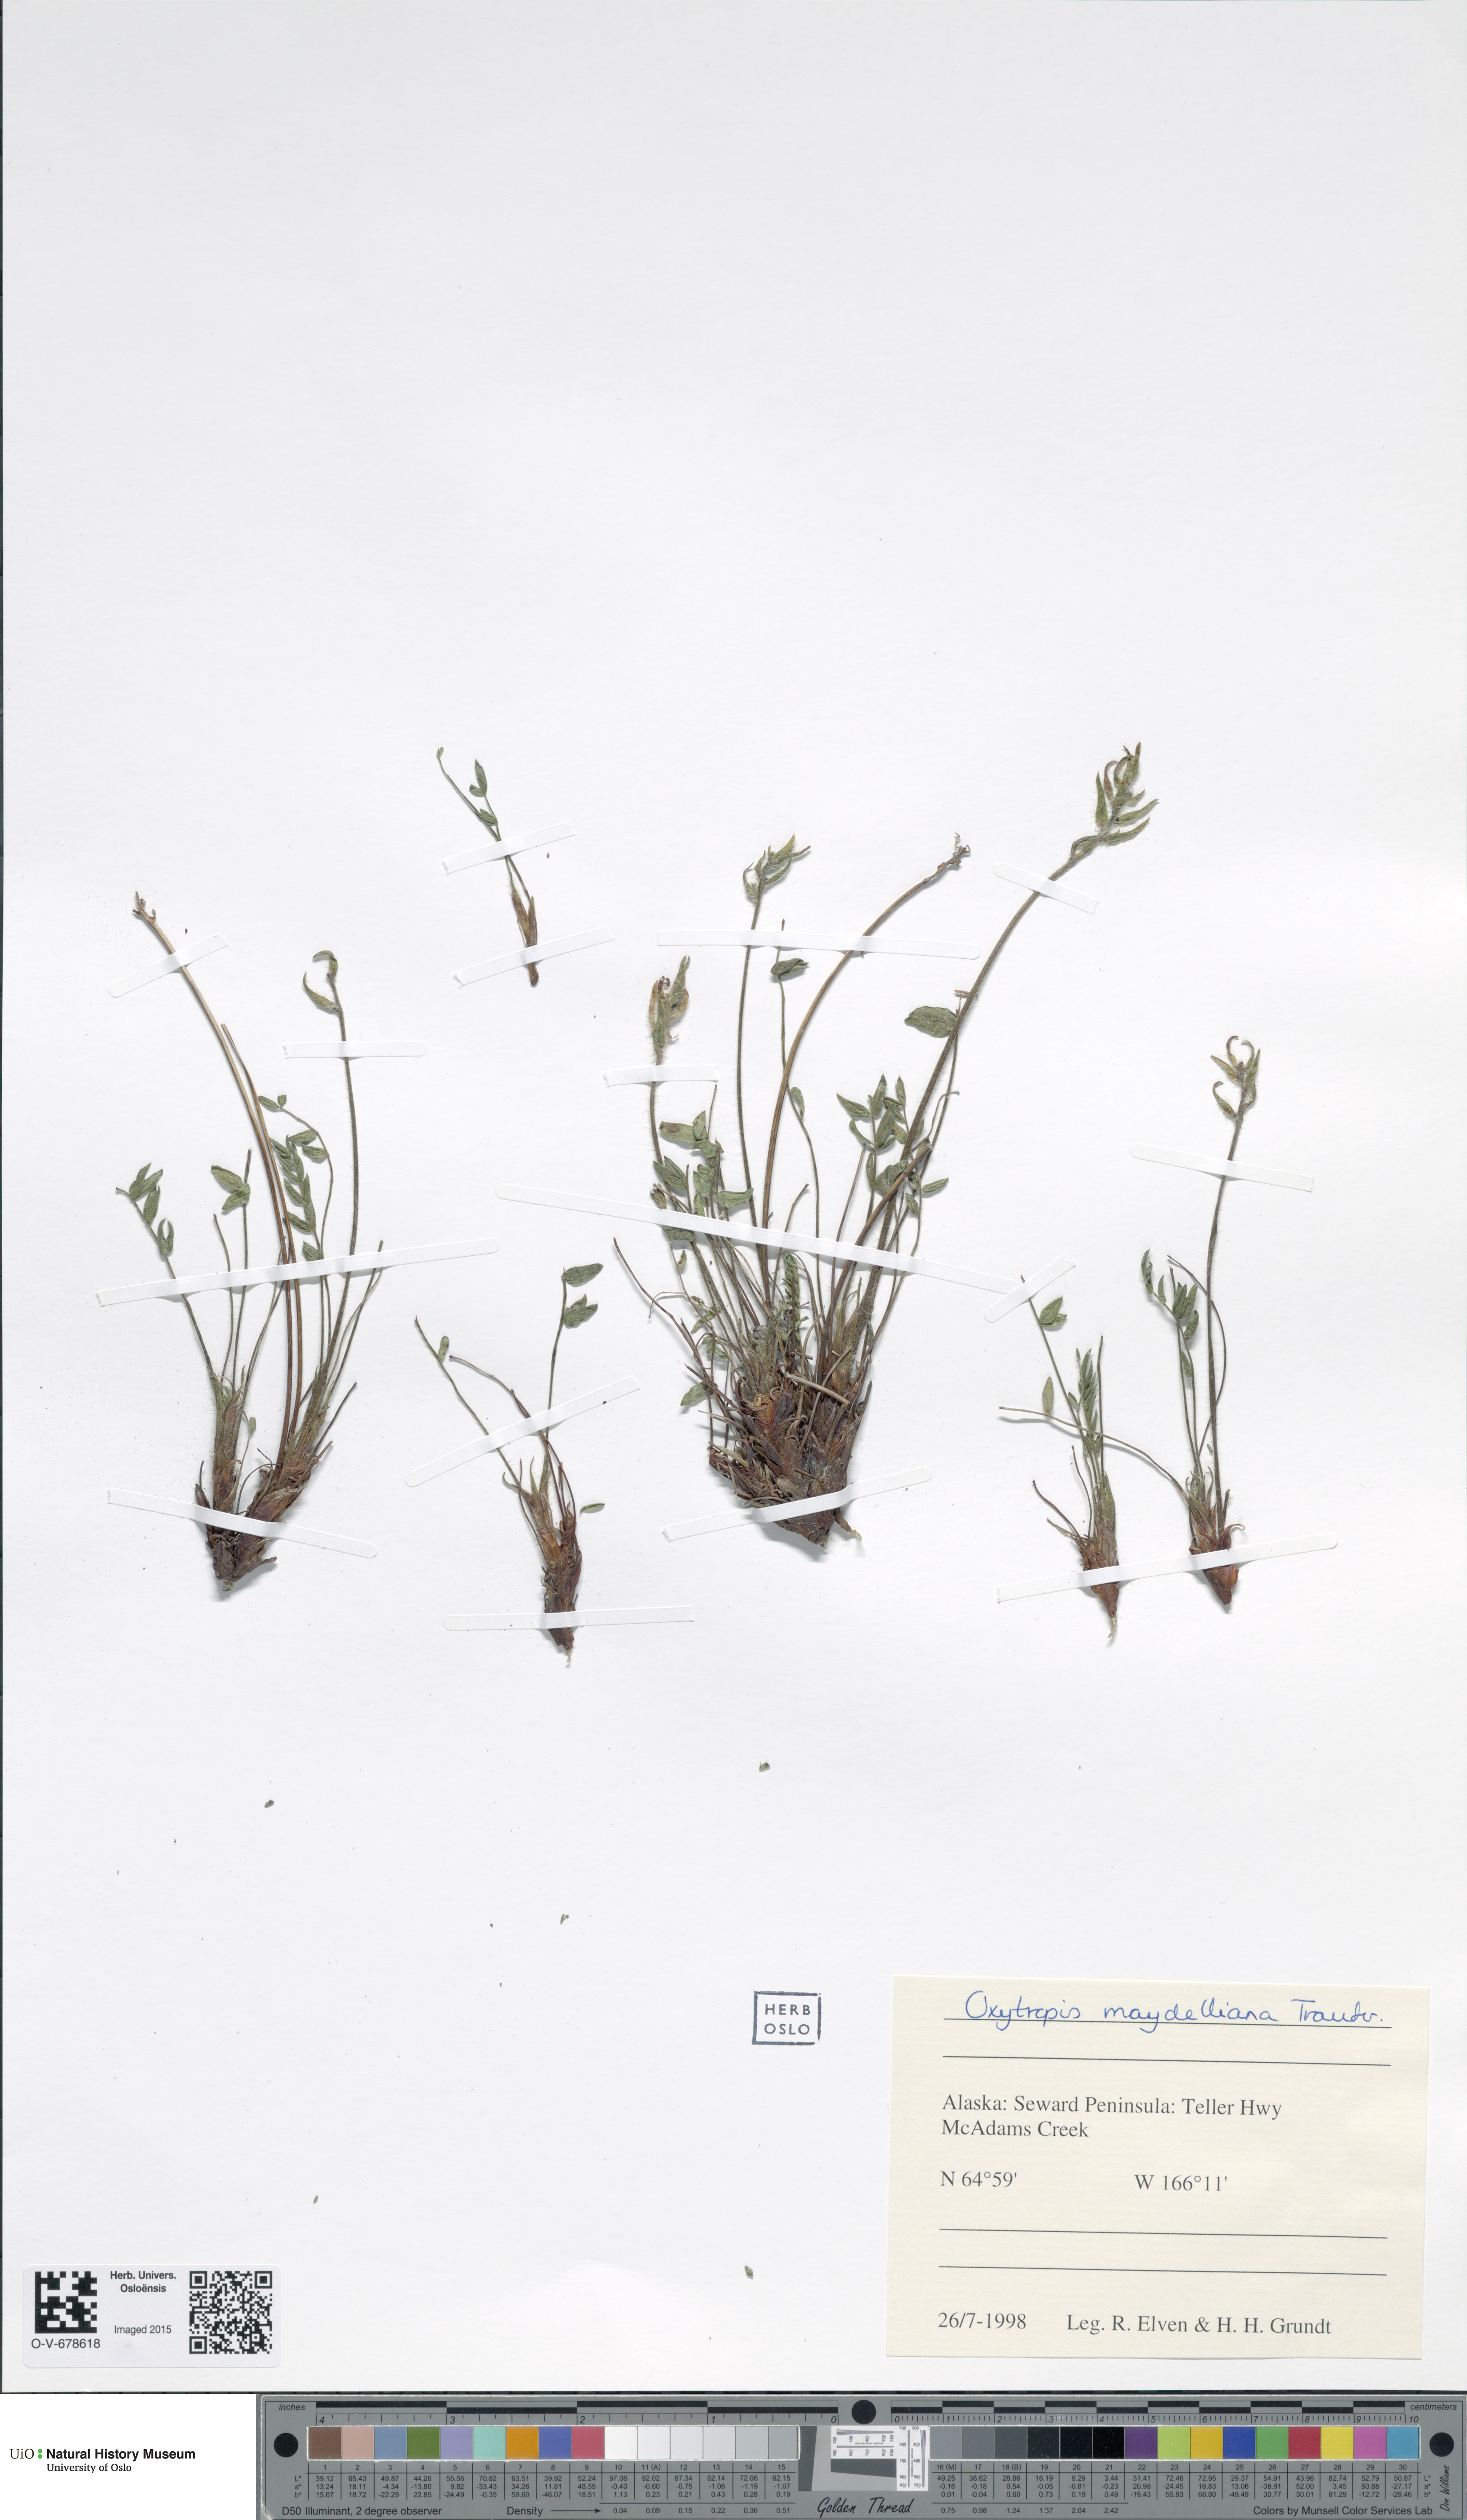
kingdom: Plantae
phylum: Tracheophyta
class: Magnoliopsida
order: Fabales
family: Fabaceae
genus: Oxytropis
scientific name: Oxytropis maydelliana
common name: Maydell's locoweed
